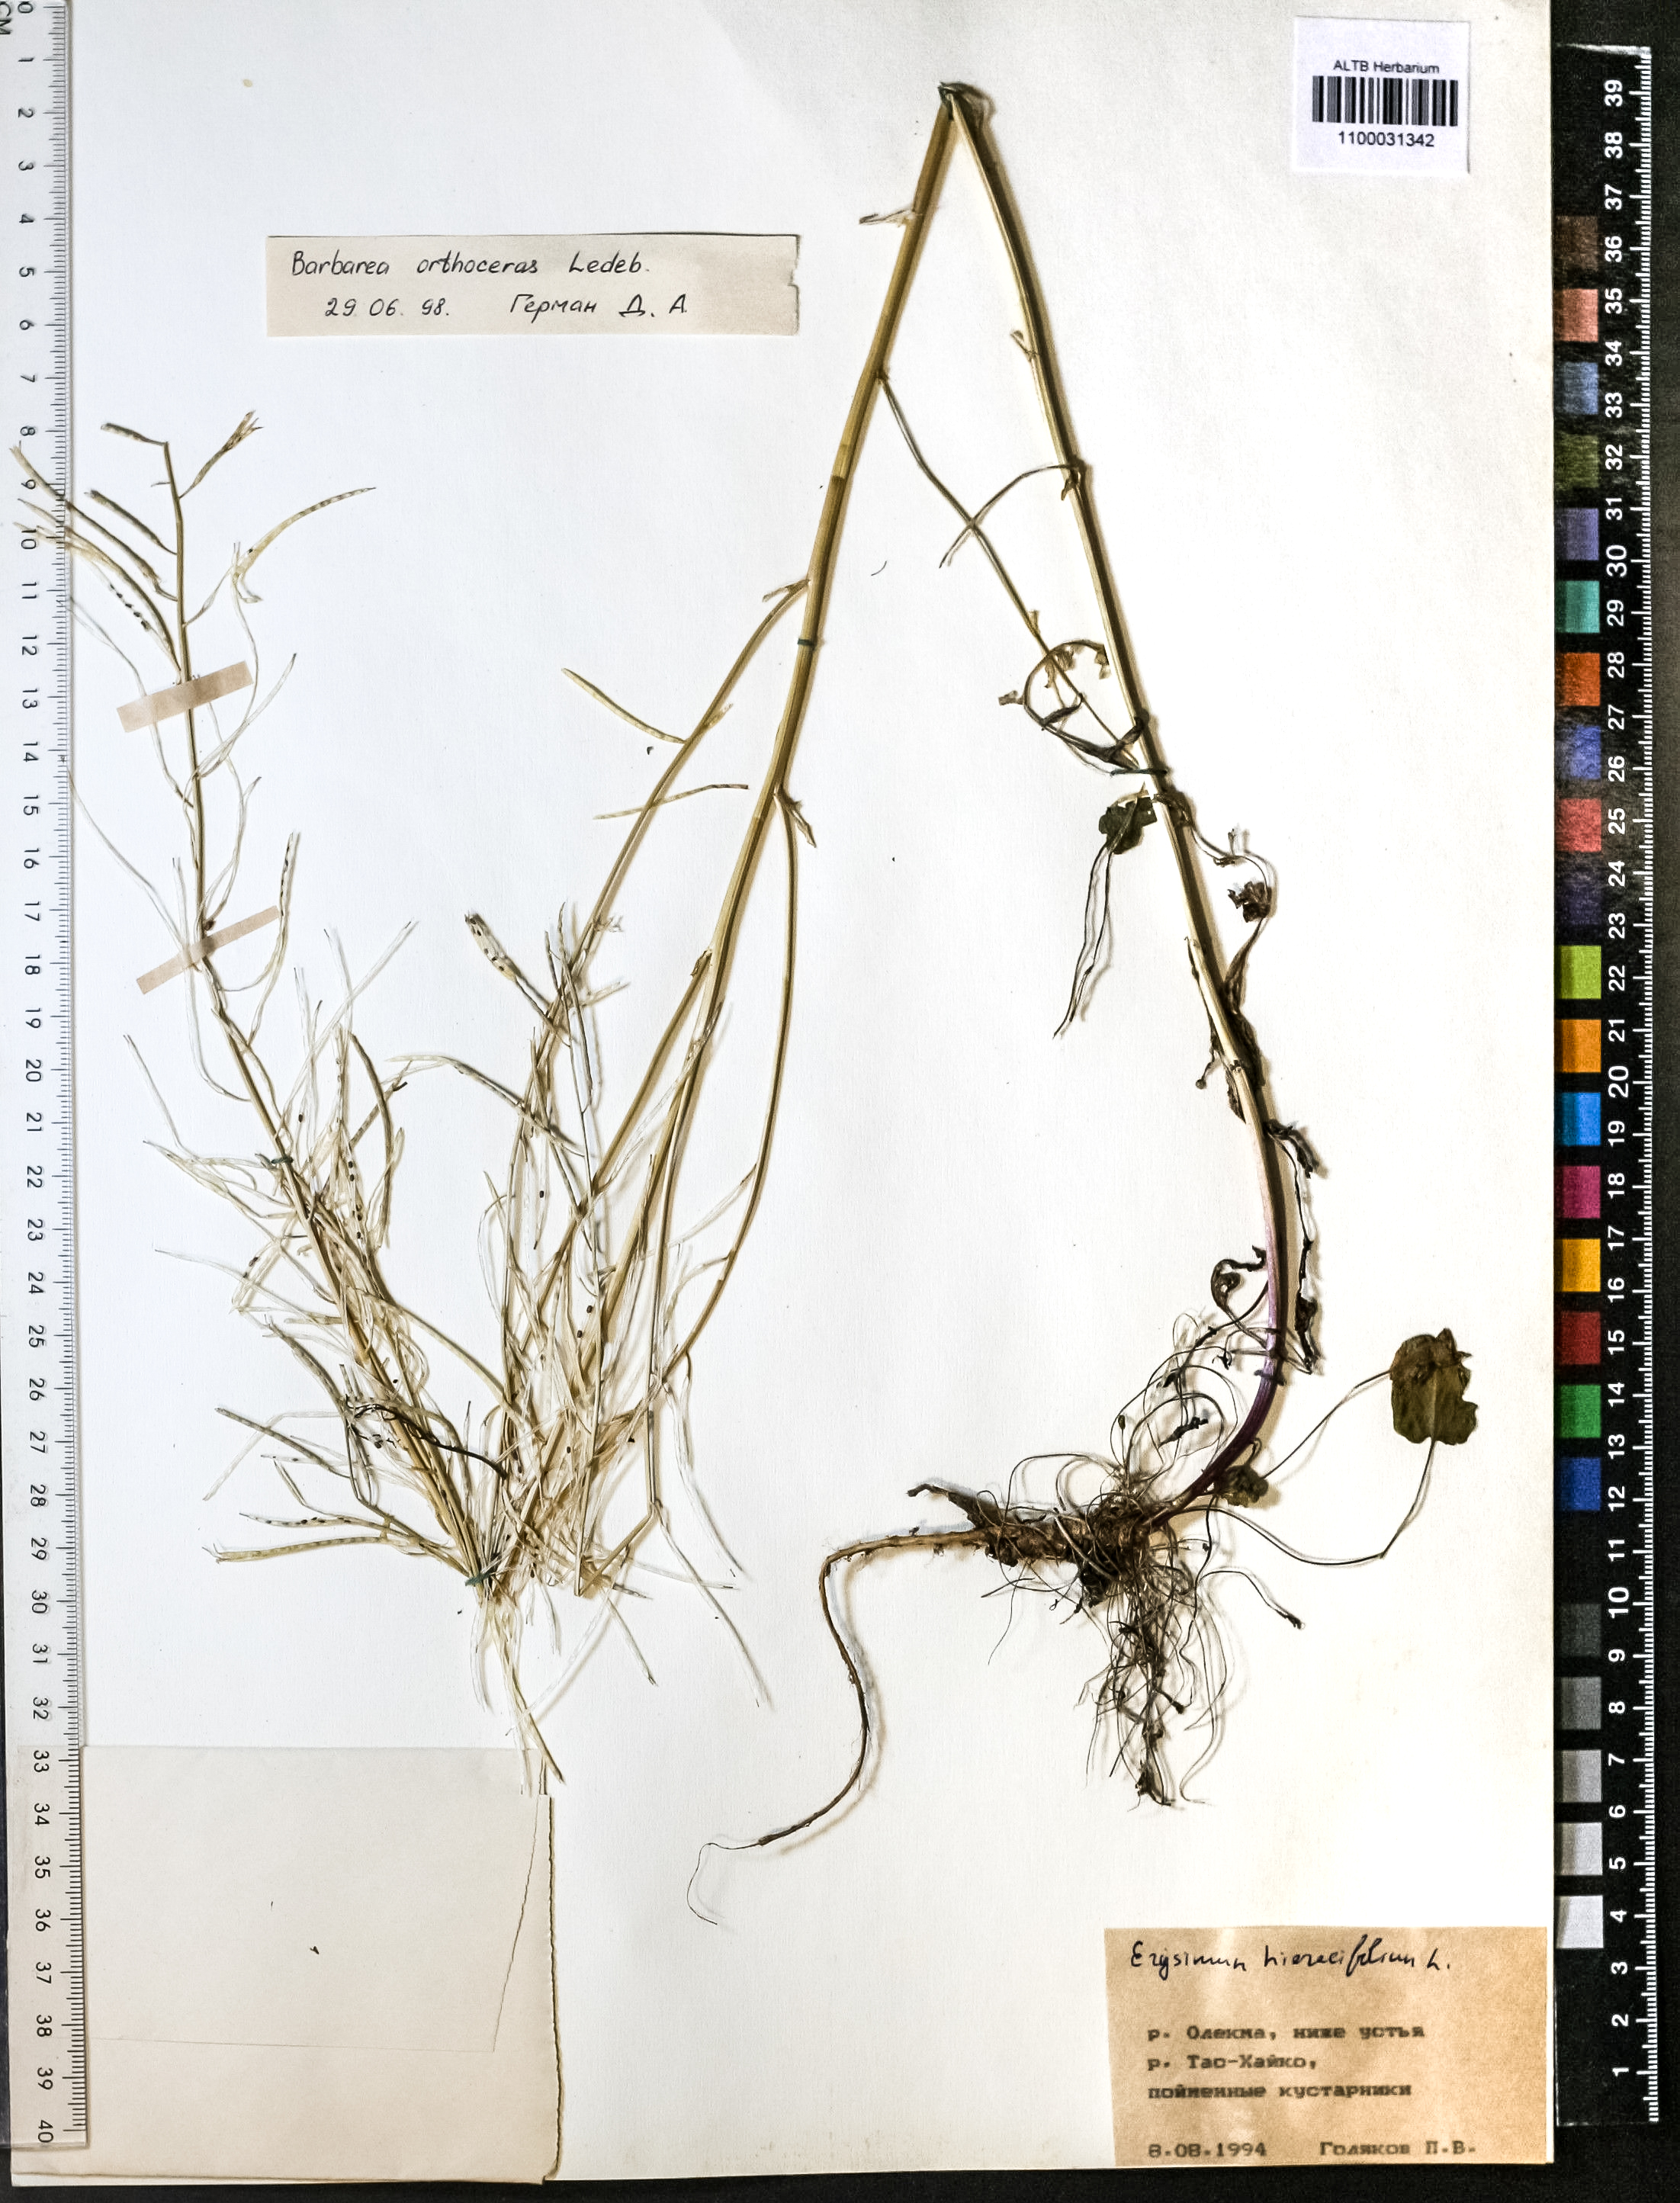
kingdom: Plantae
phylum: Tracheophyta
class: Magnoliopsida
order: Brassicales
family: Brassicaceae
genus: Barbarea
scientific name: Barbarea orthoceras
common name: American wintercress
